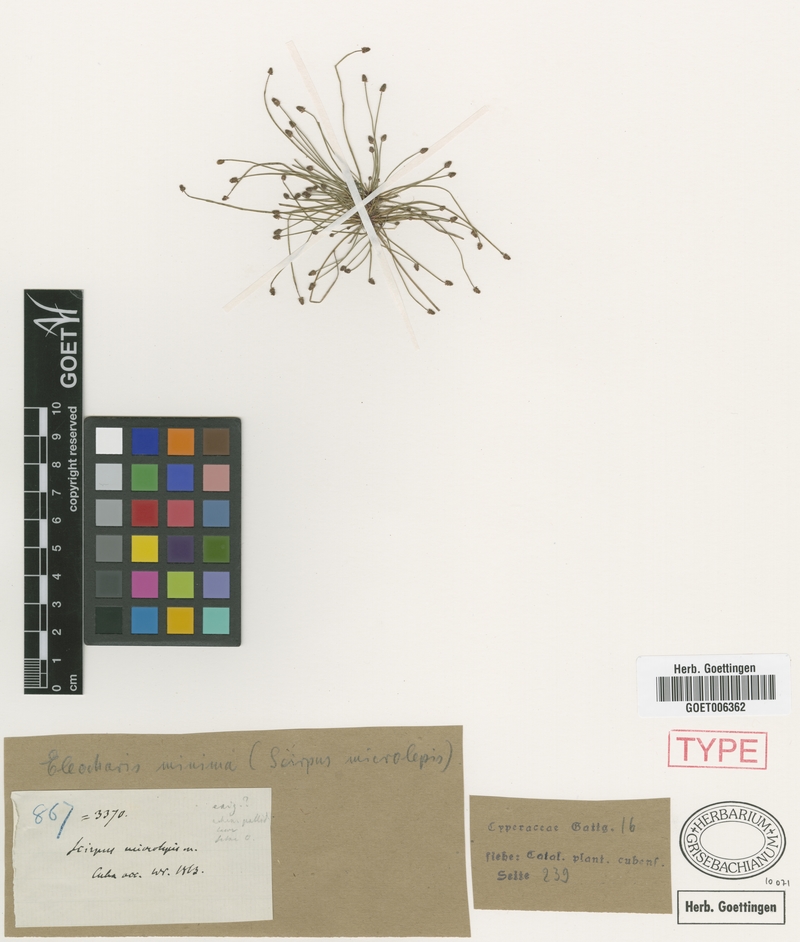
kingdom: Plantae
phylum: Tracheophyta
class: Liliopsida
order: Poales
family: Cyperaceae
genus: Eleocharis
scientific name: Eleocharis microlepis
